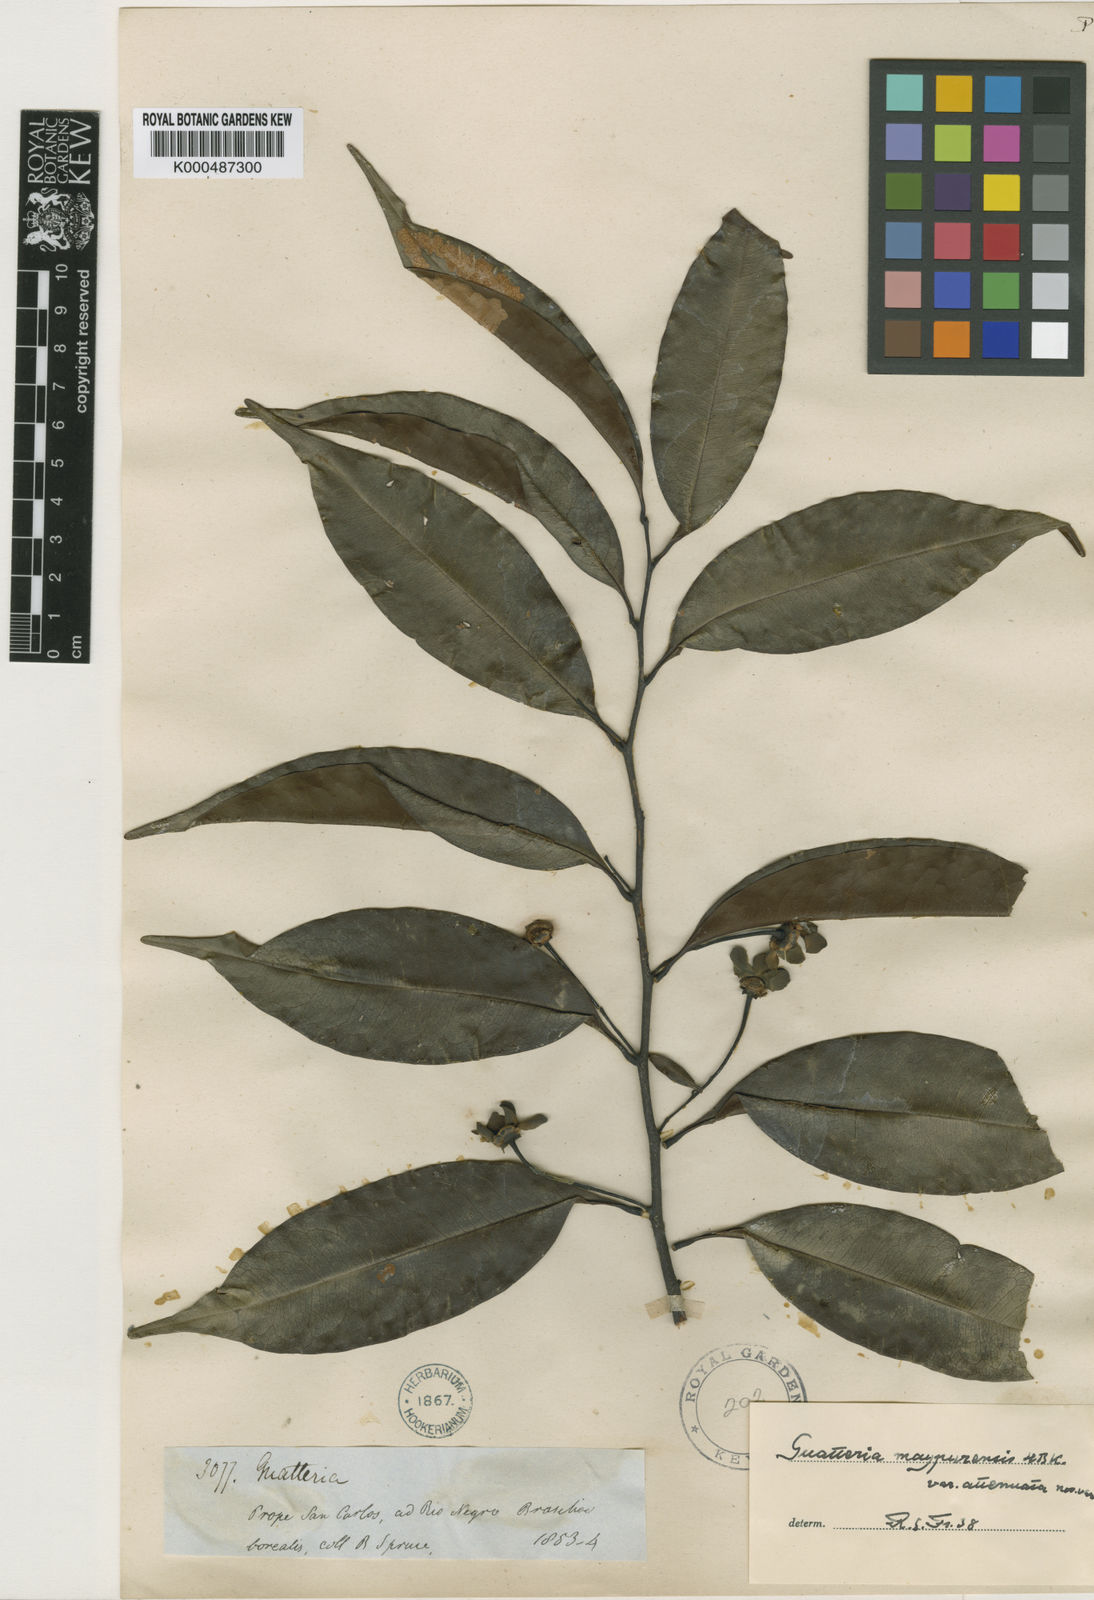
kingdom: Plantae
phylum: Tracheophyta
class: Magnoliopsida
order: Magnoliales
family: Annonaceae
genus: Guatteria
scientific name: Guatteria maypurensis
